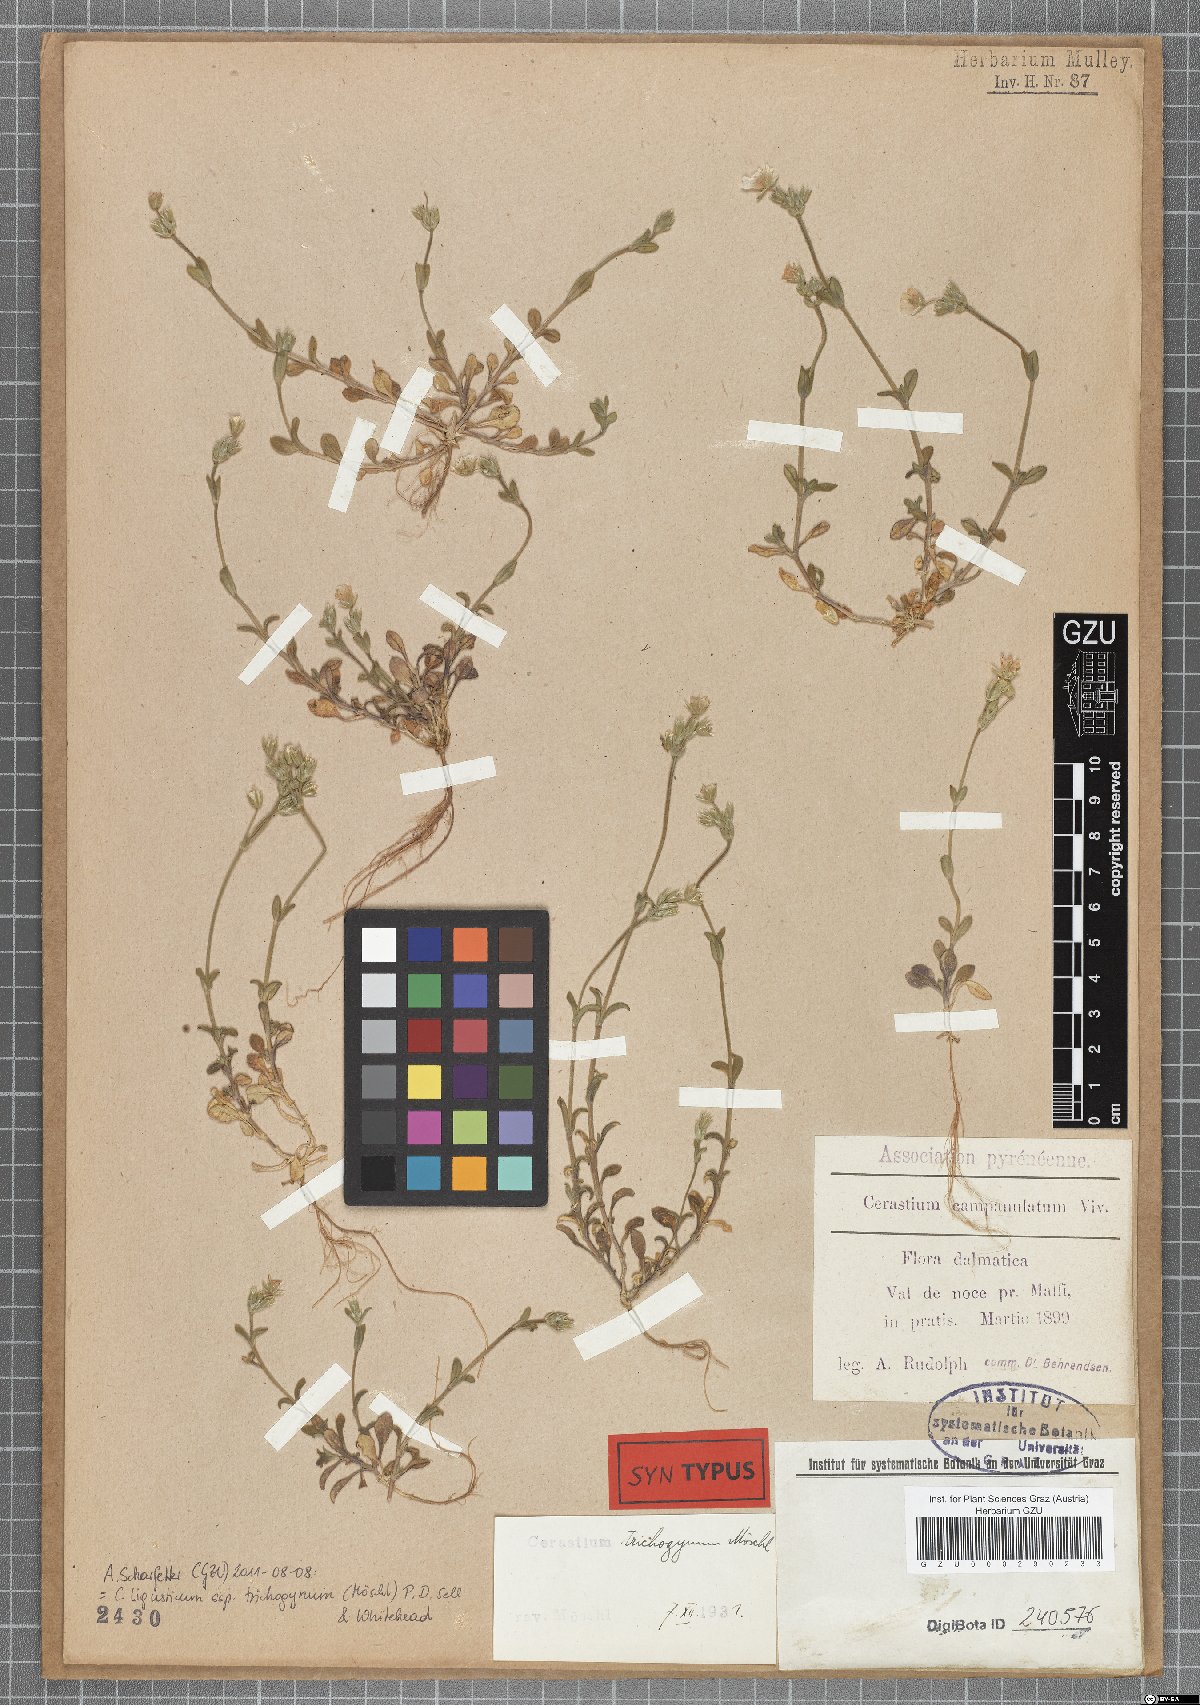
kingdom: Plantae
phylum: Tracheophyta
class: Magnoliopsida
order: Caryophyllales
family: Caryophyllaceae
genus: Cerastium
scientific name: Cerastium ligusticum
